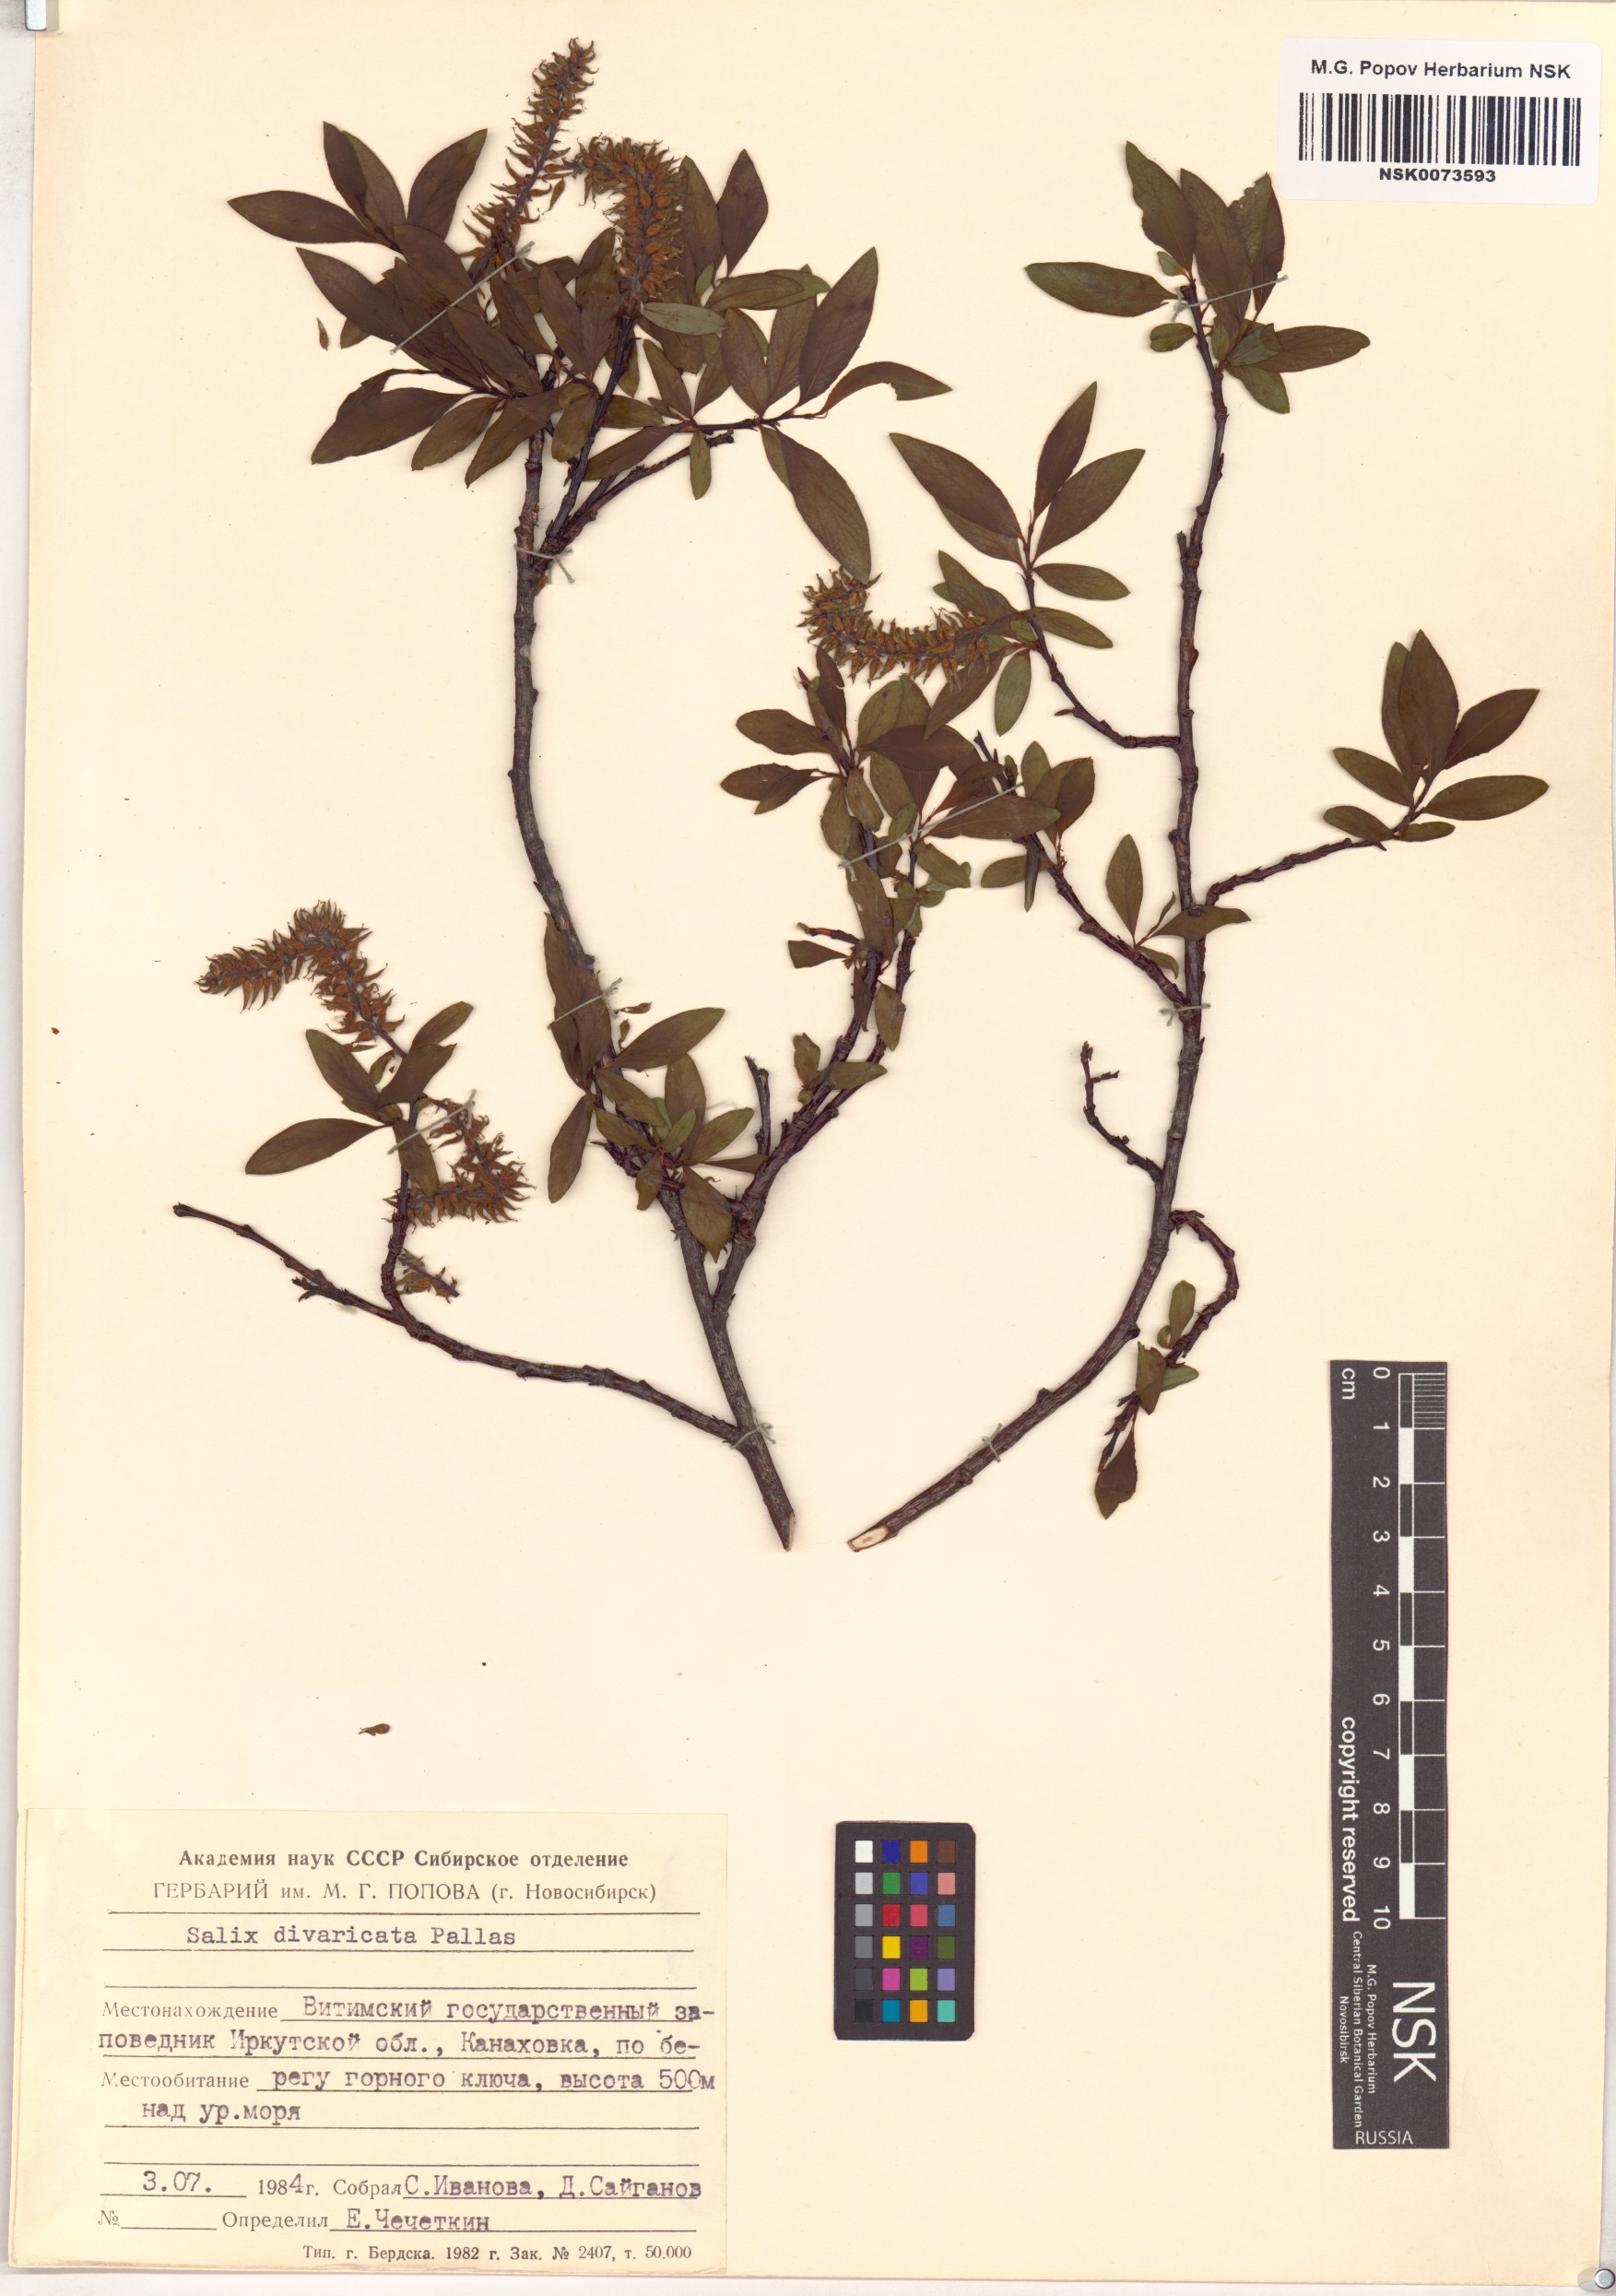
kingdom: Plantae
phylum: Tracheophyta
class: Magnoliopsida
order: Malpighiales
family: Salicaceae
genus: Salix
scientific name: Salix divaricata
